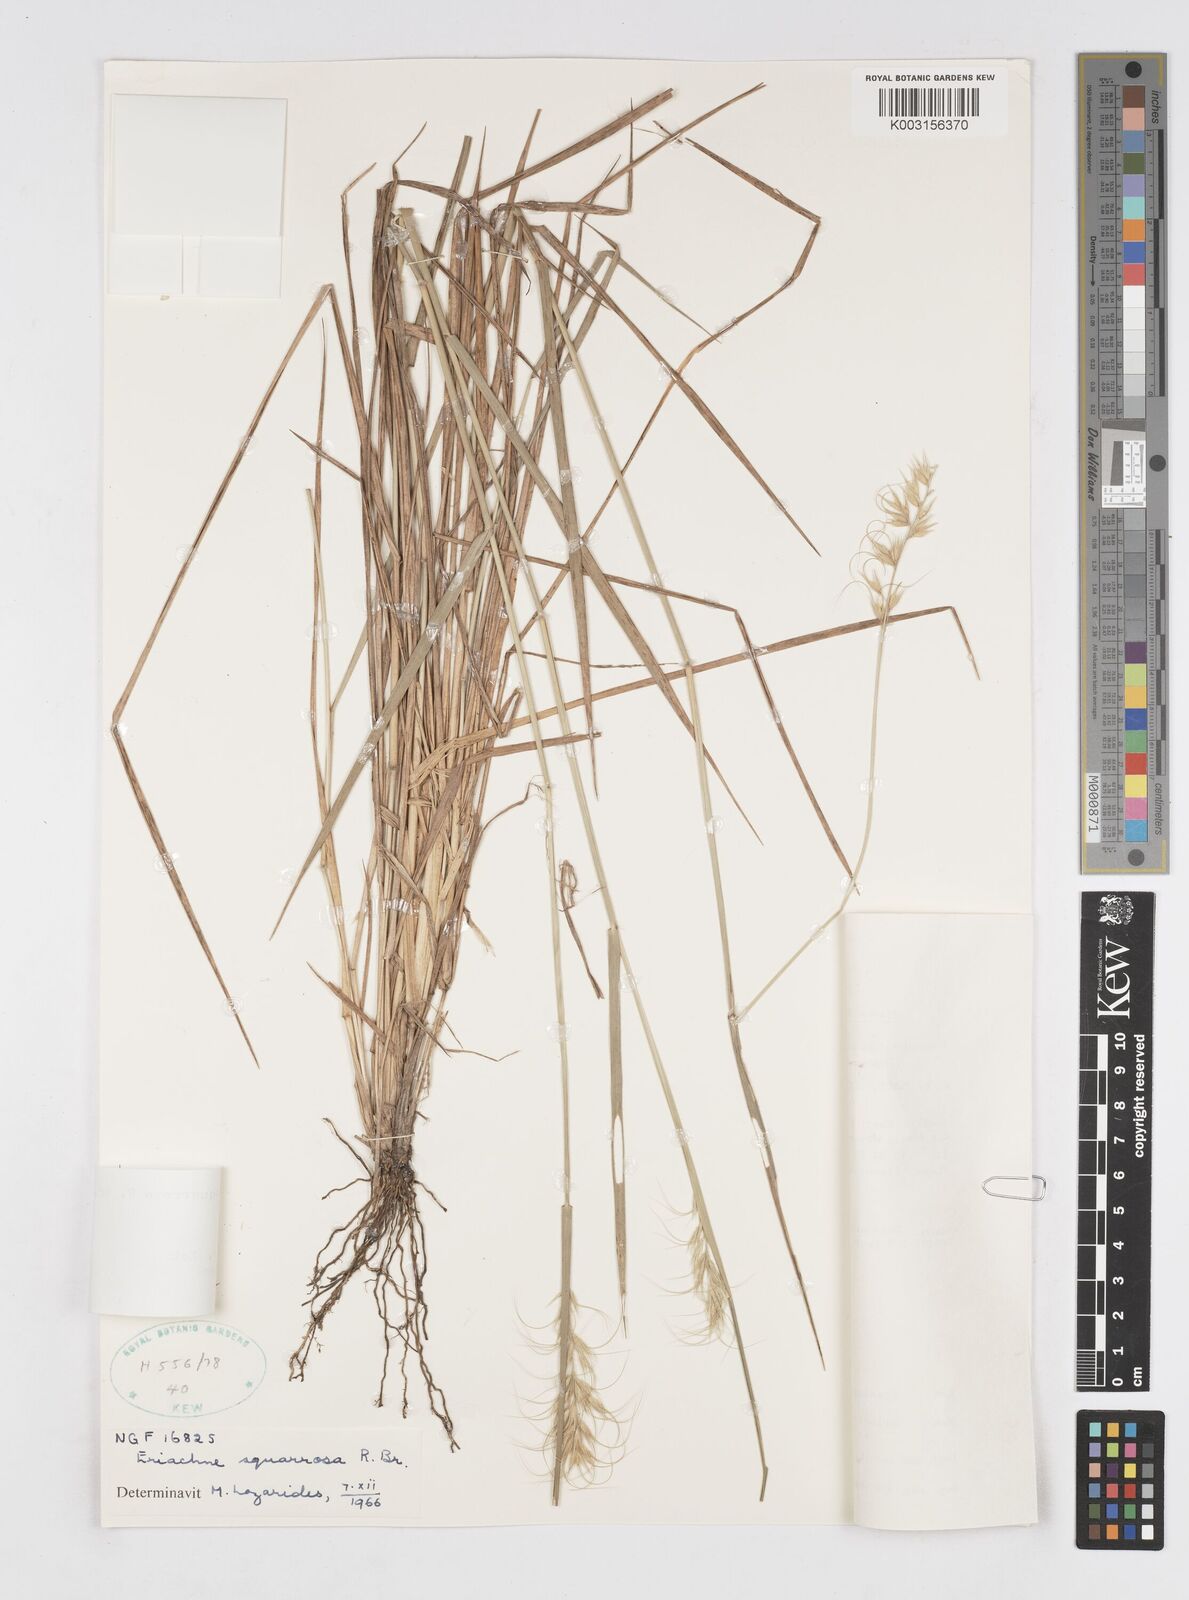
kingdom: Plantae
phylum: Tracheophyta
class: Liliopsida
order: Poales
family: Poaceae
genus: Eriachne
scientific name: Eriachne squarrosa
